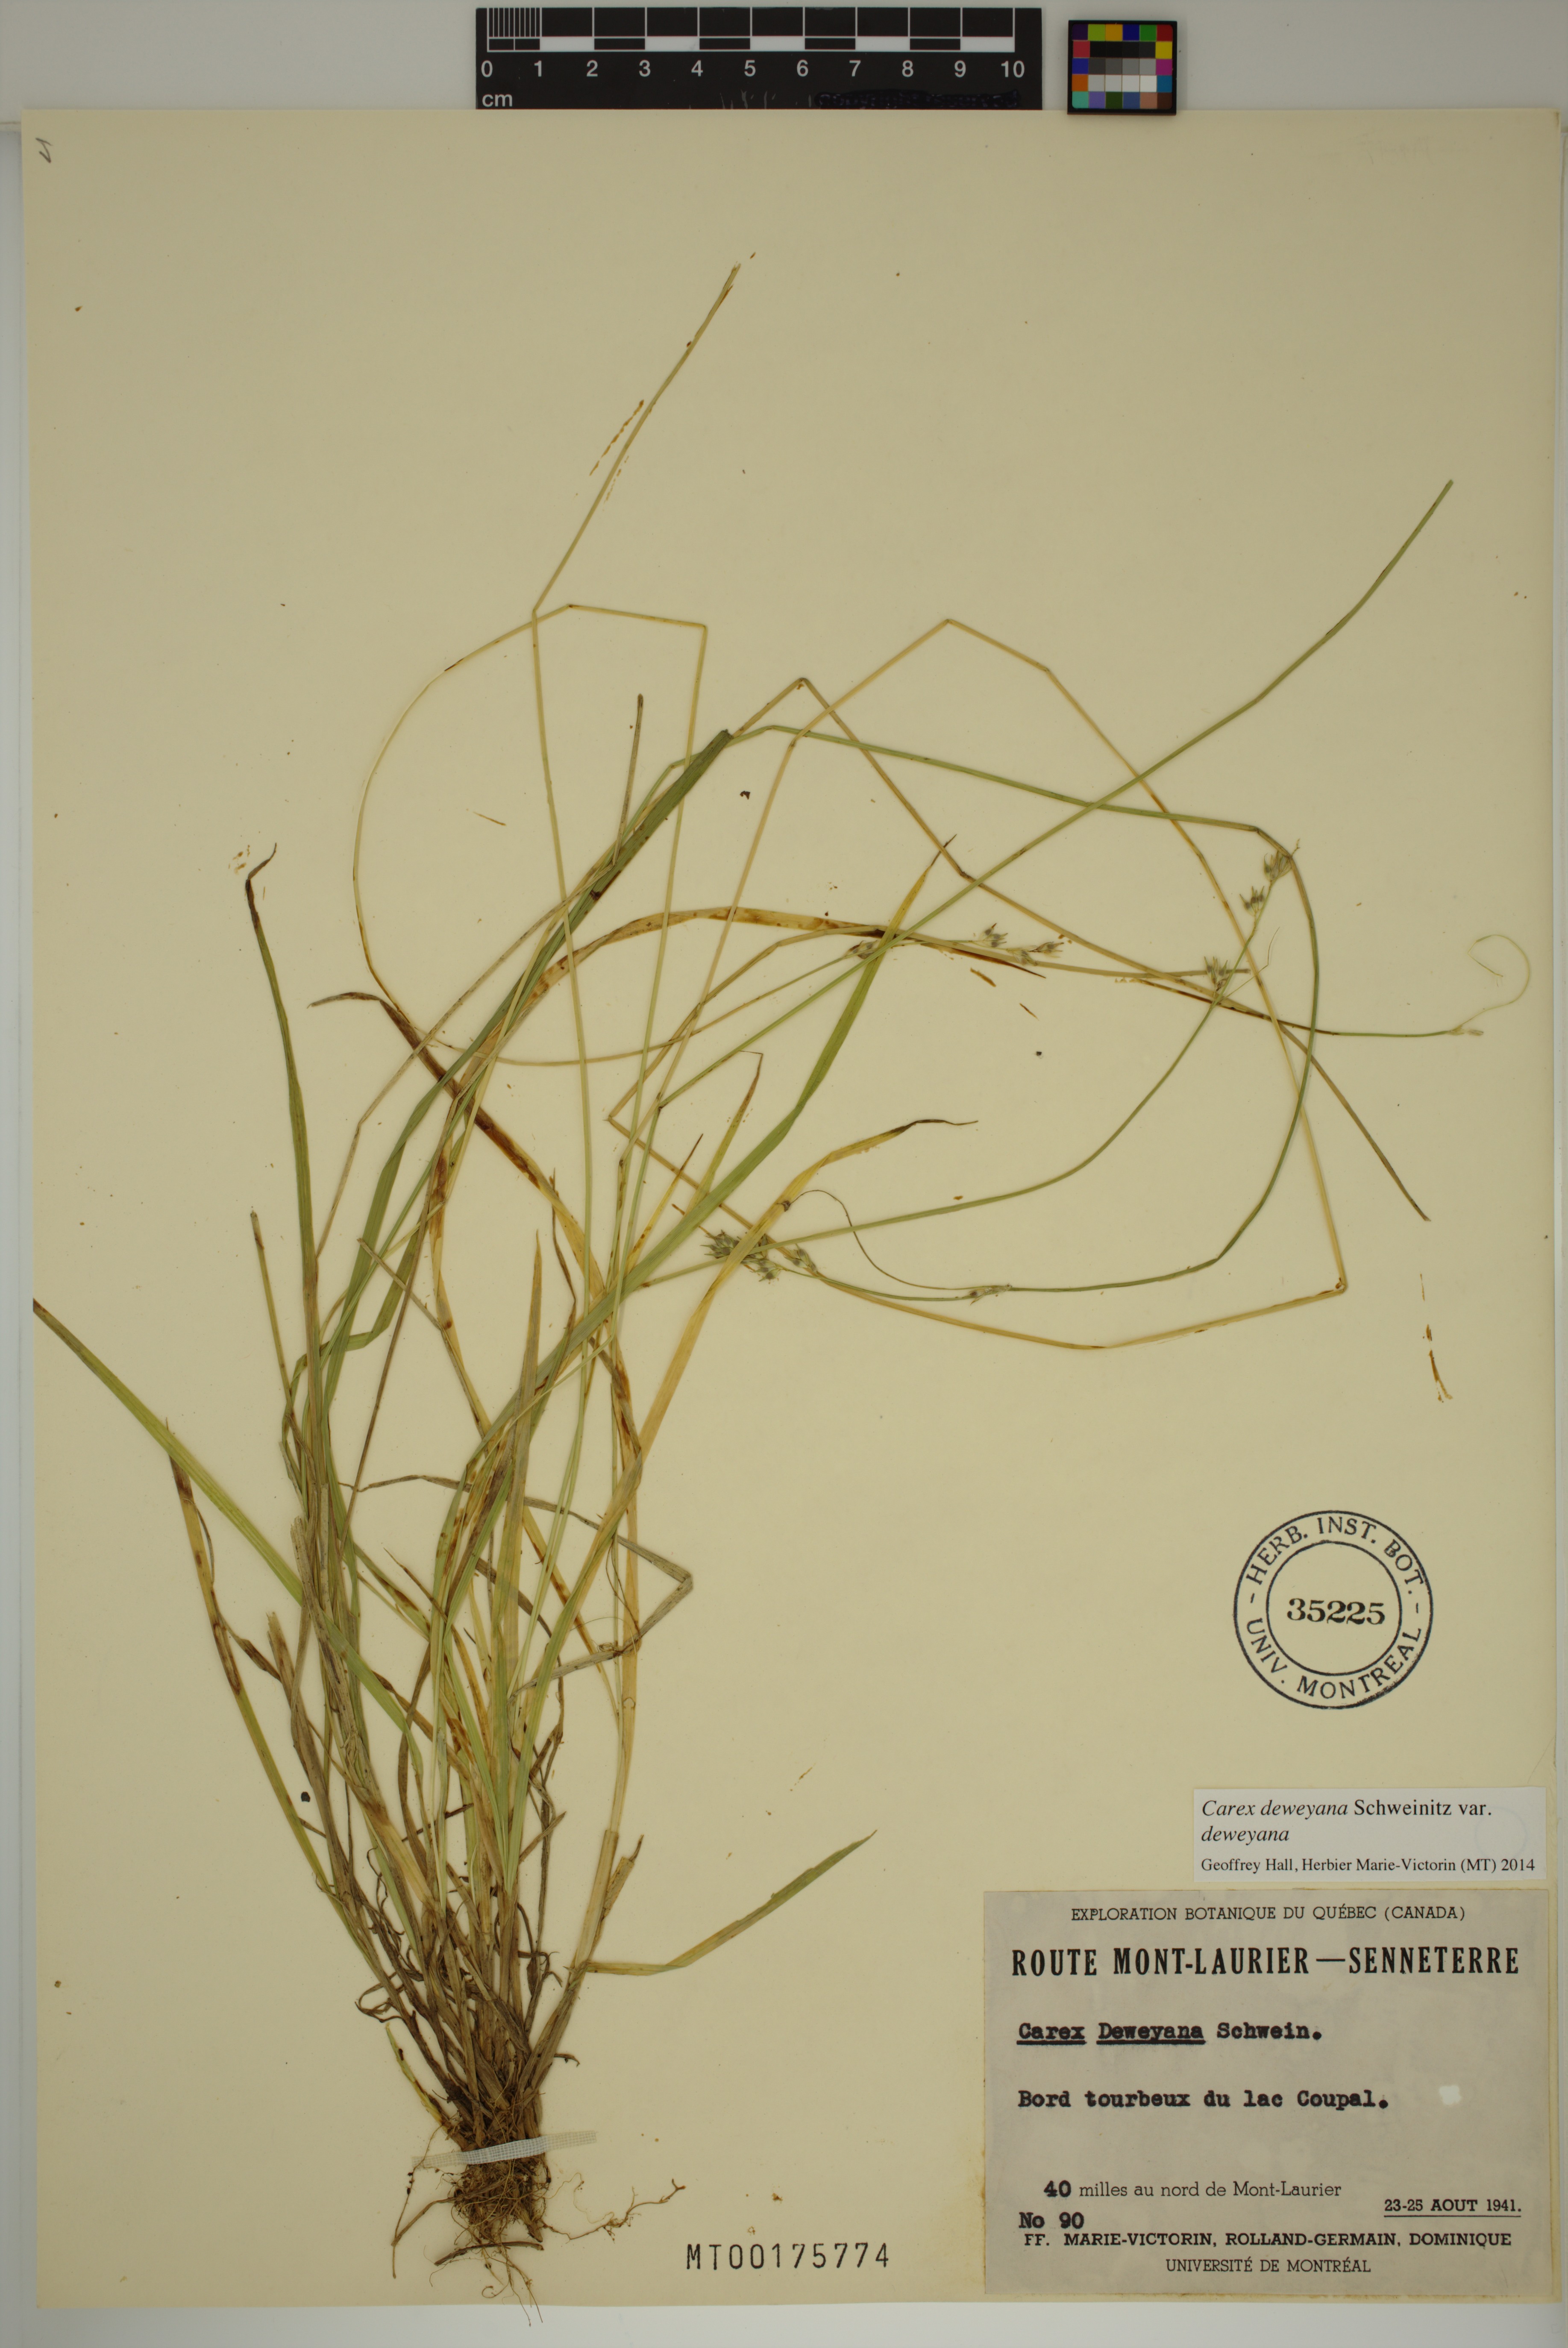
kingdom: Plantae
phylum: Tracheophyta
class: Liliopsida
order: Poales
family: Cyperaceae
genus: Carex
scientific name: Carex deweyana
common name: Dewey's sedge
